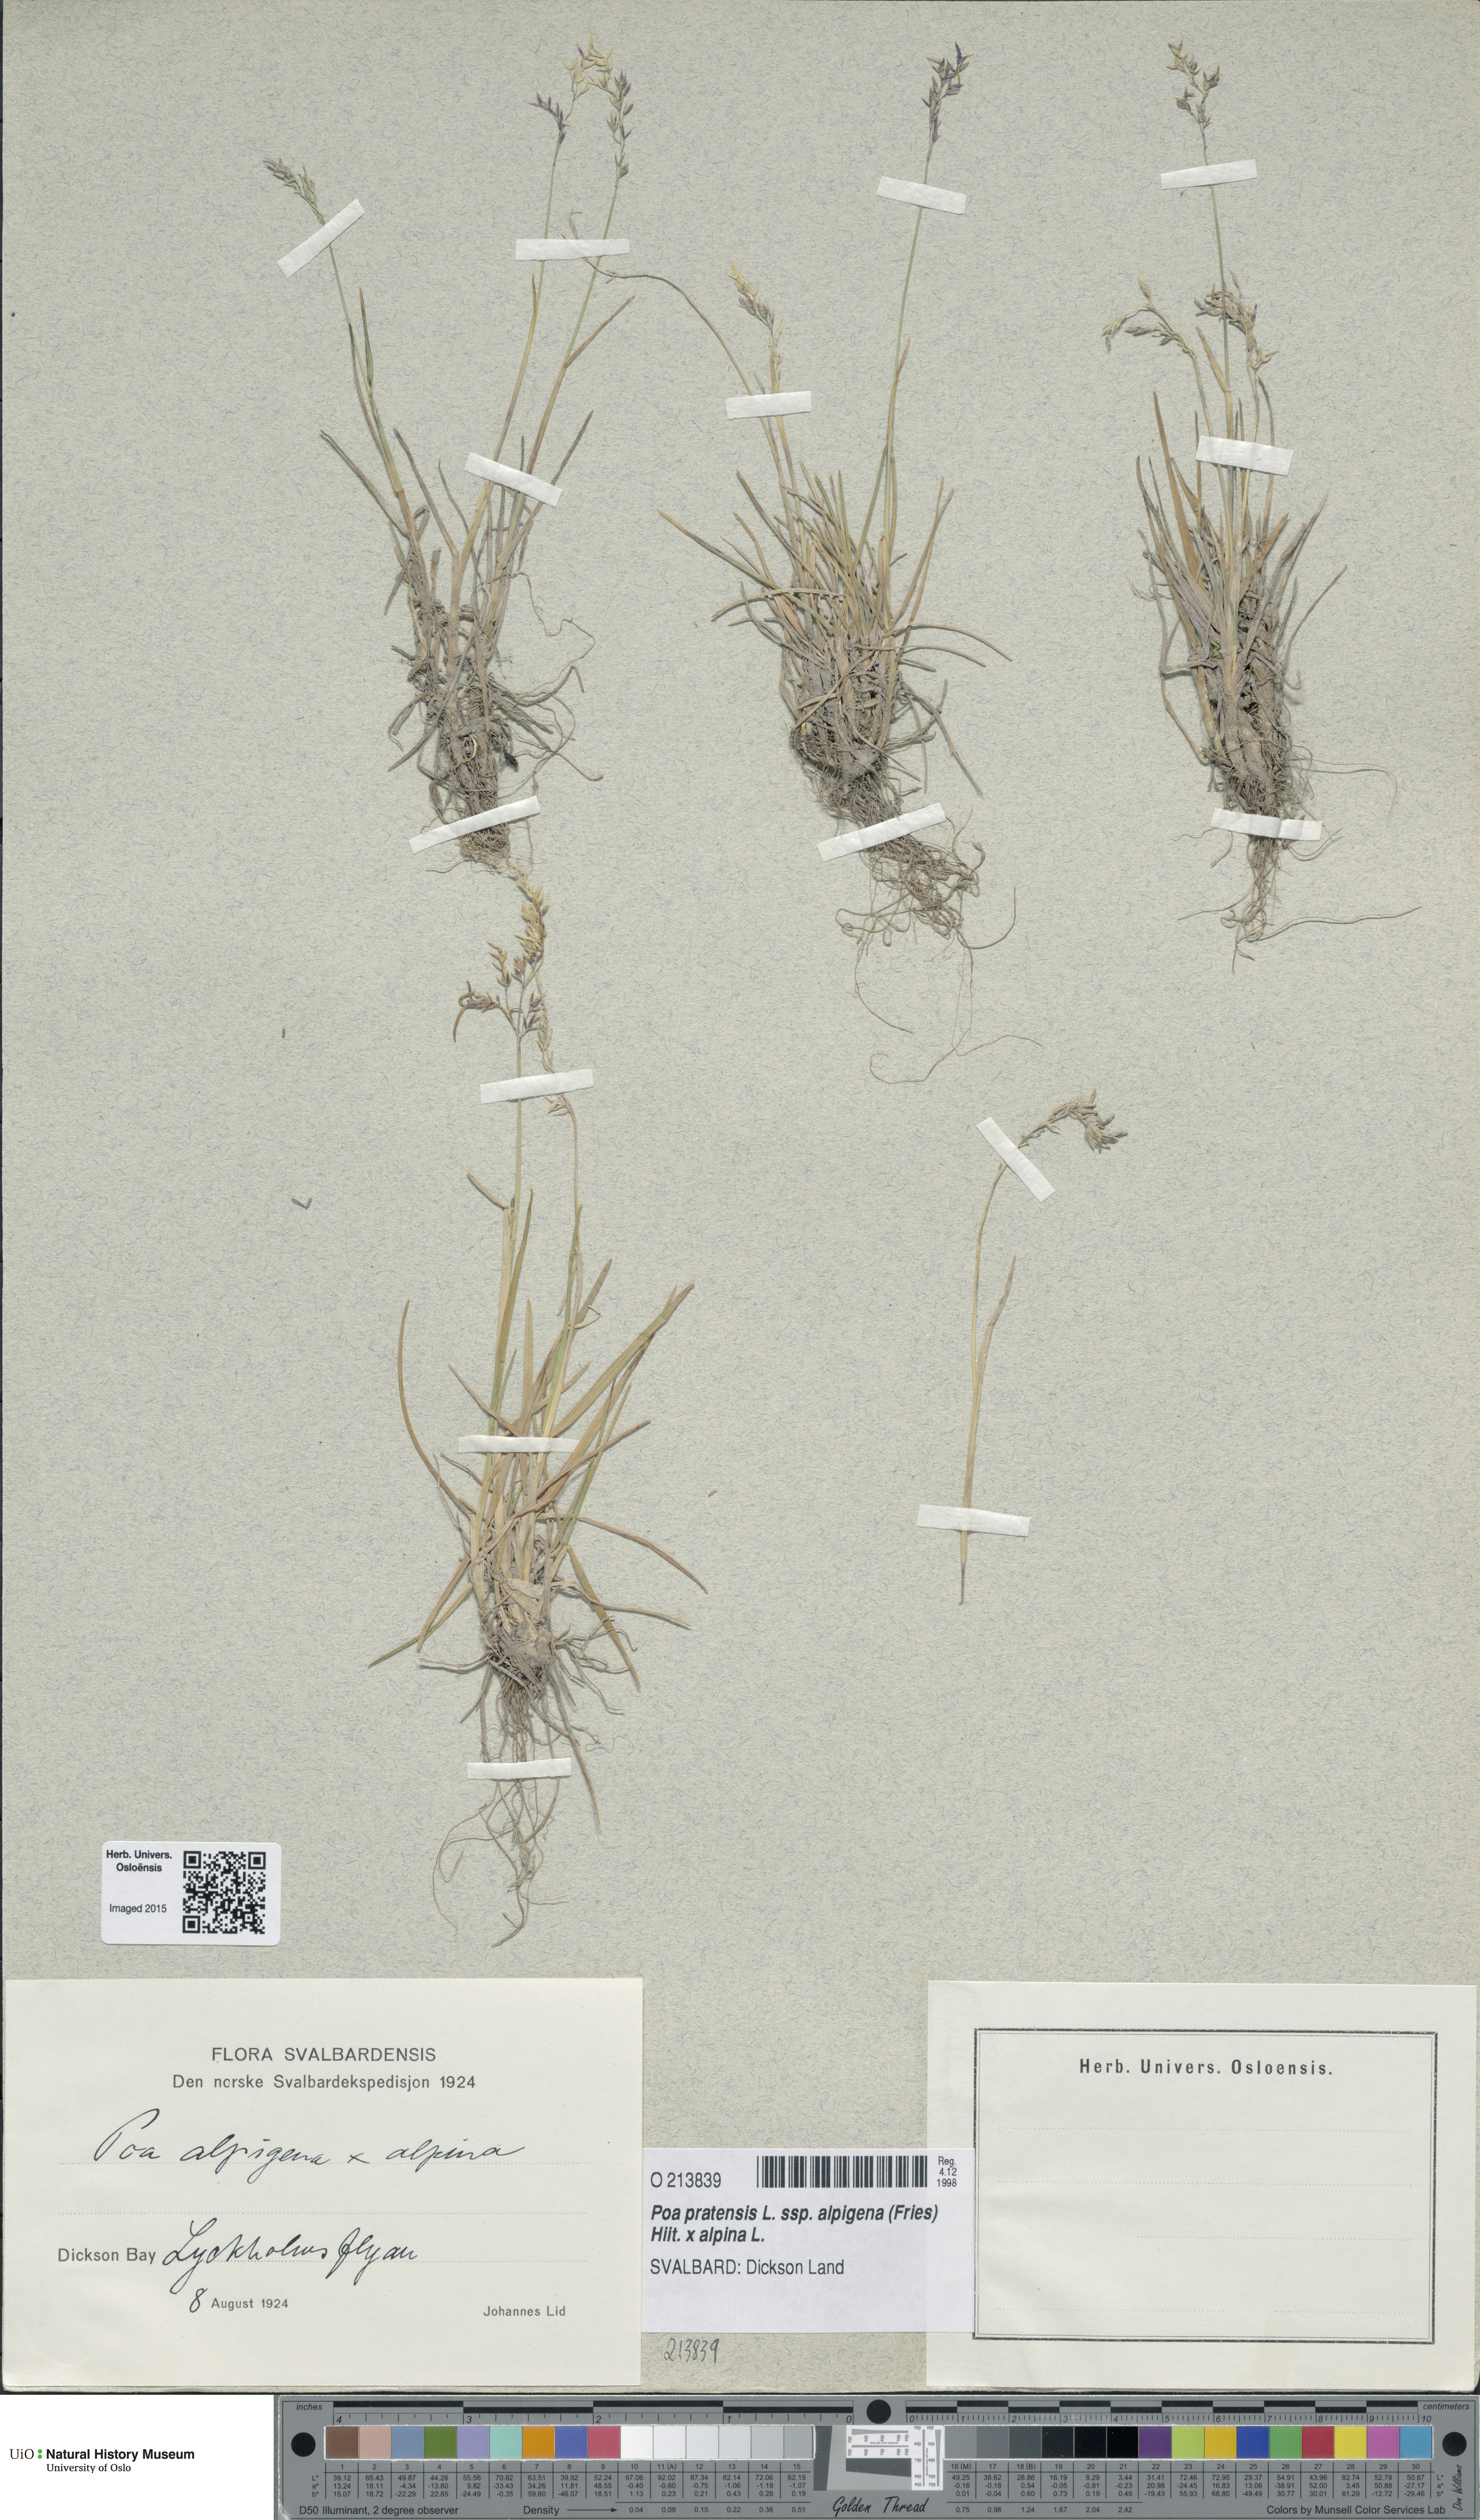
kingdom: Plantae
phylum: Tracheophyta
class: Liliopsida
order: Poales
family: Poaceae
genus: Poa
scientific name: Poa
